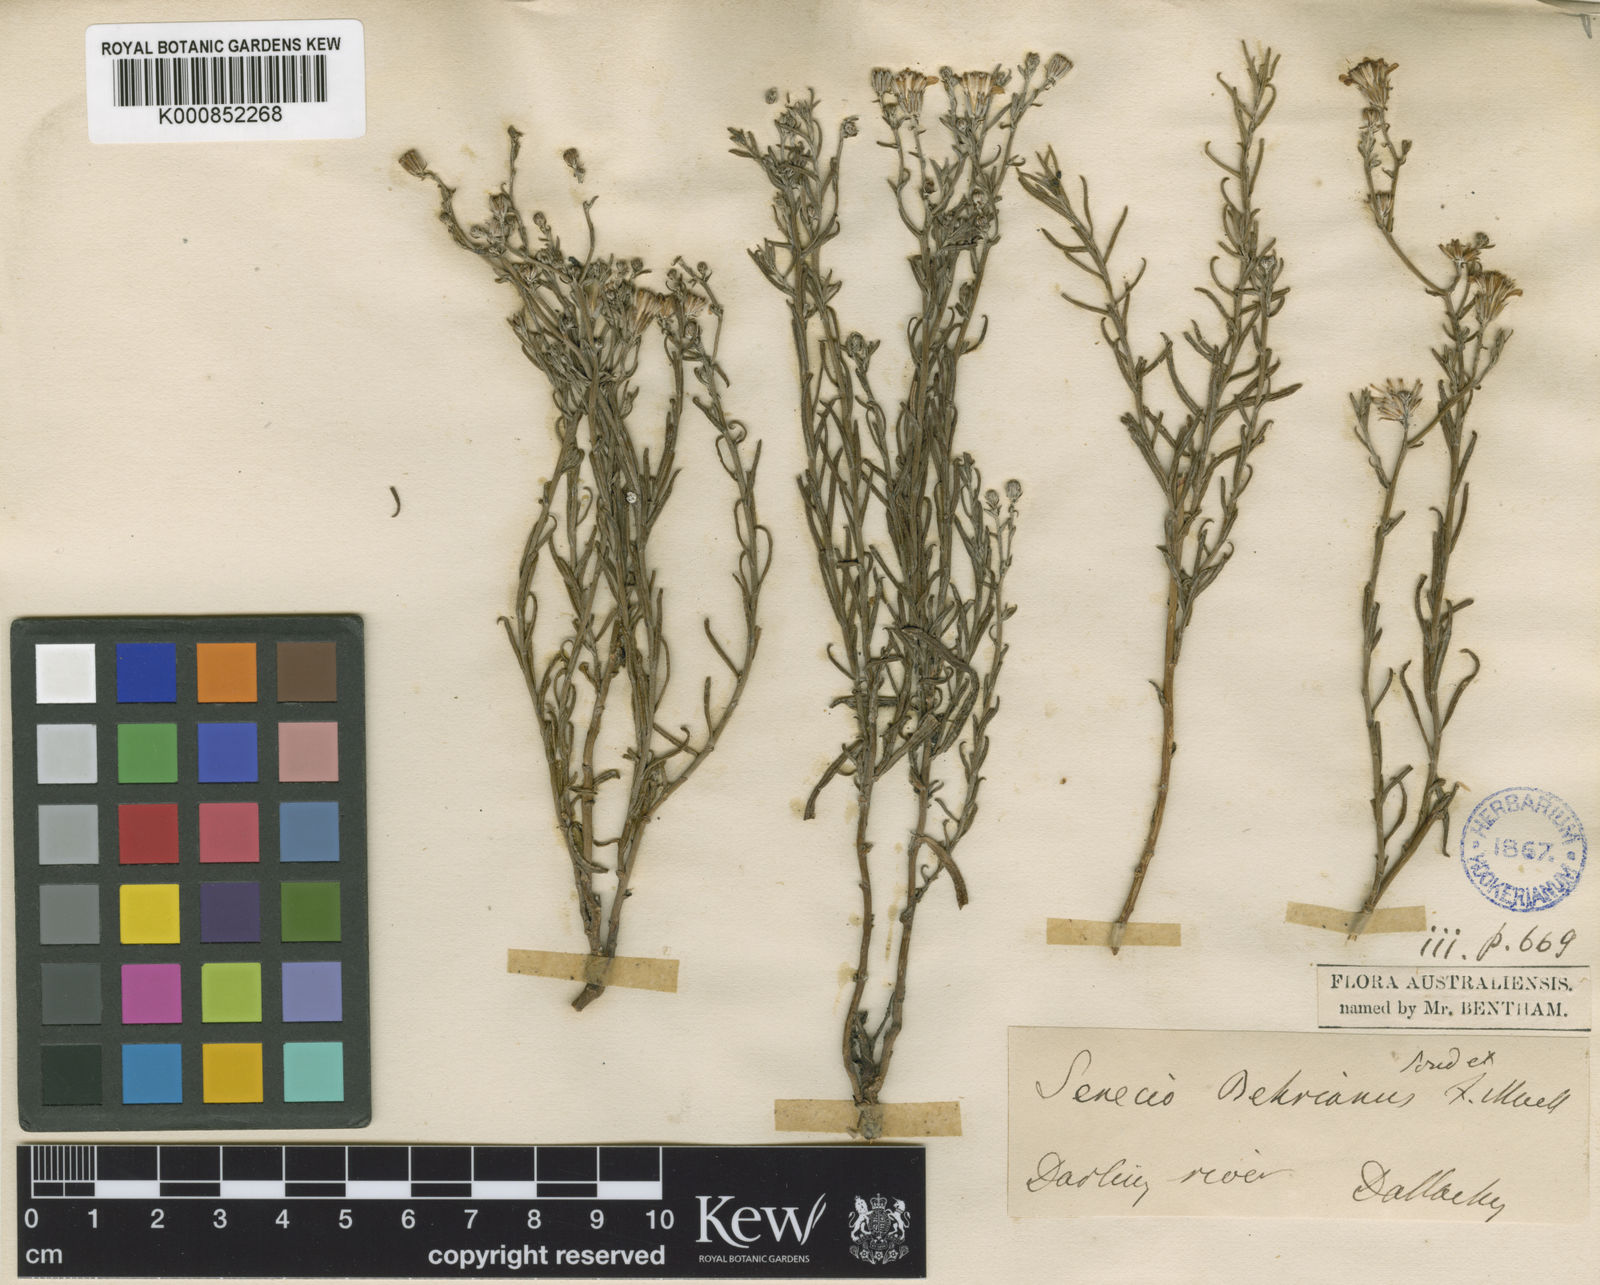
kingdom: Plantae
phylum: Tracheophyta
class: Magnoliopsida
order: Asterales
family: Asteraceae
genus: Senecio
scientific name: Senecio behrianus
